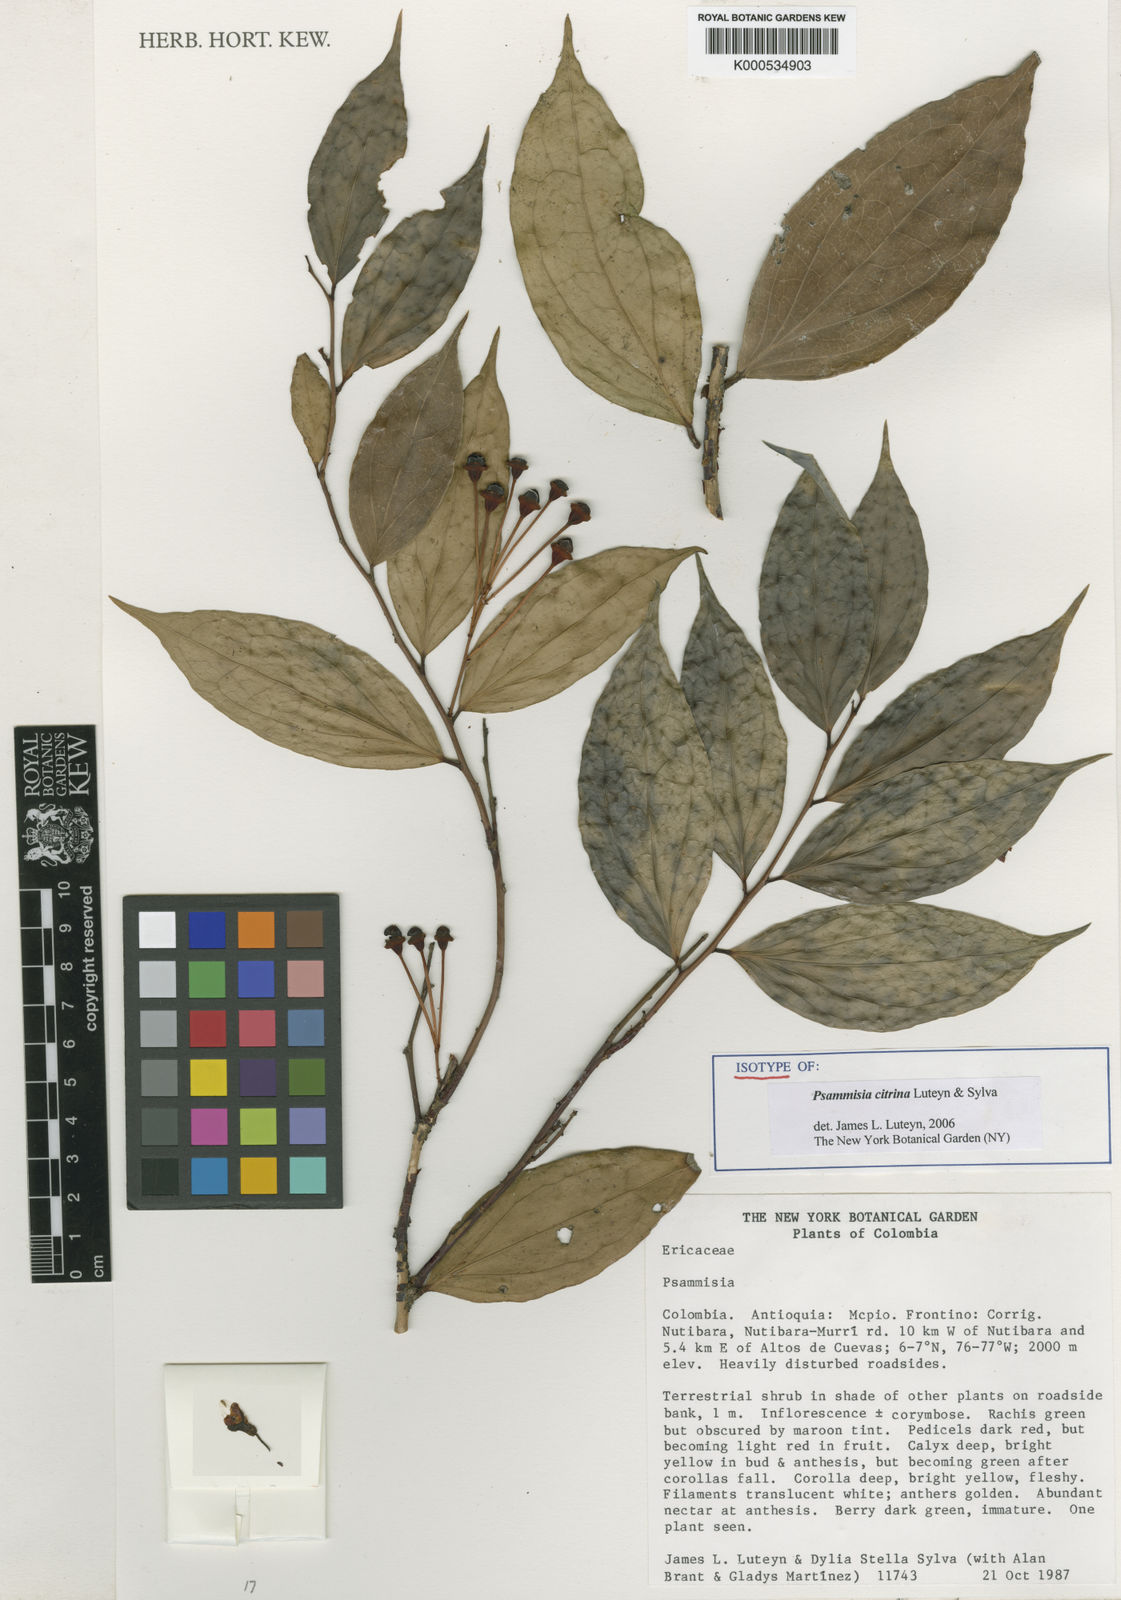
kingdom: Plantae
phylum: Tracheophyta
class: Magnoliopsida
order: Ericales
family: Ericaceae
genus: Psammisia
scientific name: Psammisia citrina
